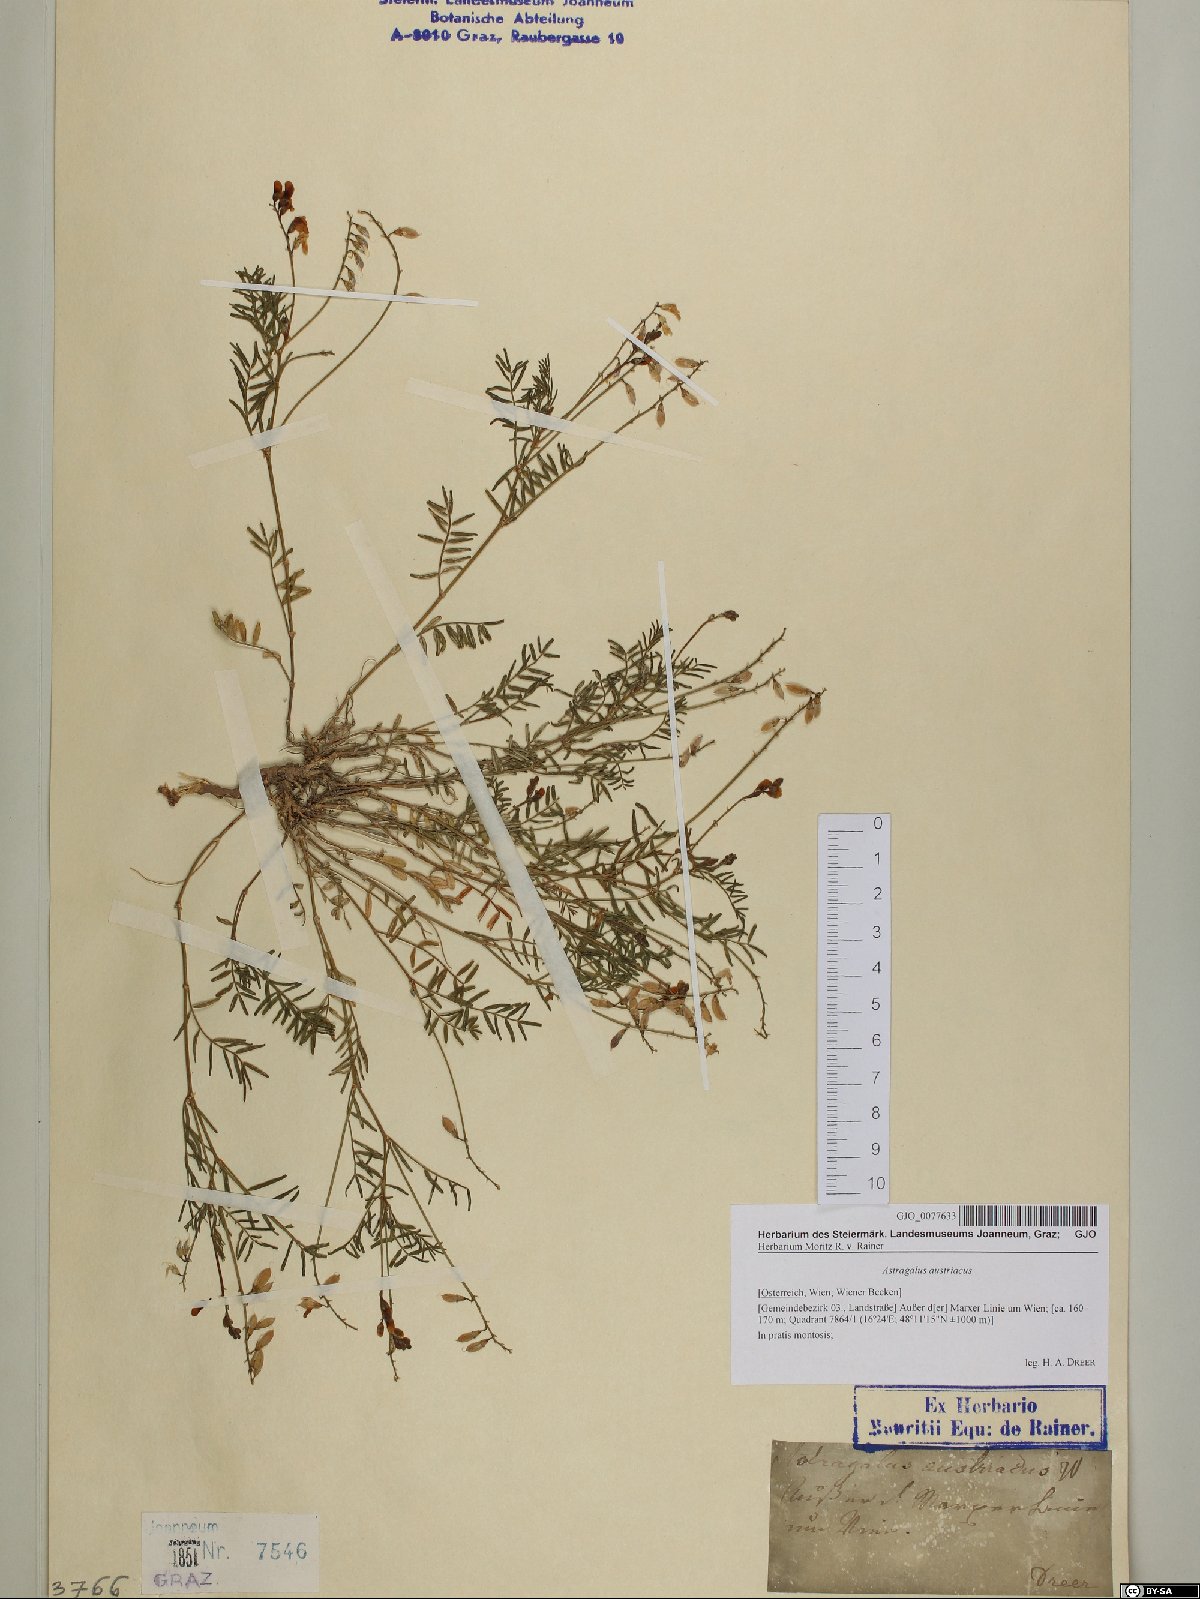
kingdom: Plantae
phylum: Tracheophyta
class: Magnoliopsida
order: Fabales
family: Fabaceae
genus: Astragalus
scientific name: Astragalus austriacus
